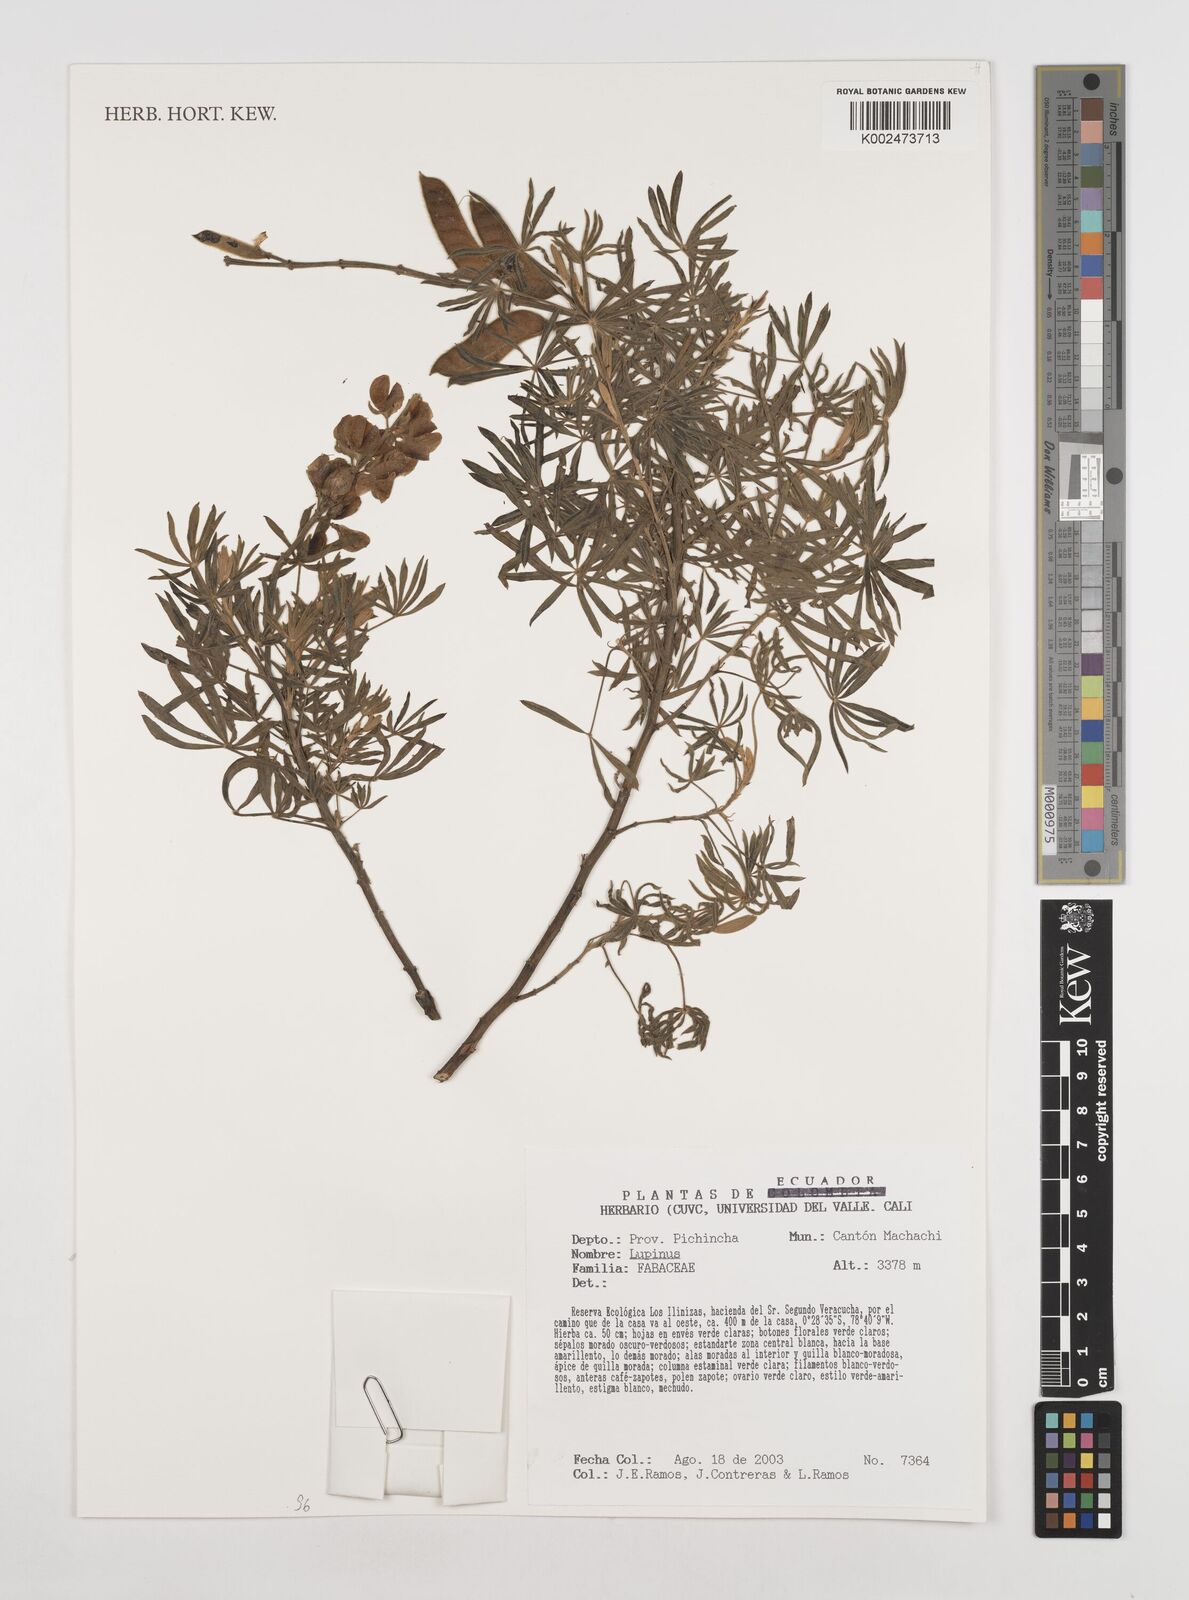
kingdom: Plantae
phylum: Tracheophyta
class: Magnoliopsida
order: Fabales
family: Fabaceae
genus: Lupinus
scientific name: Lupinus
